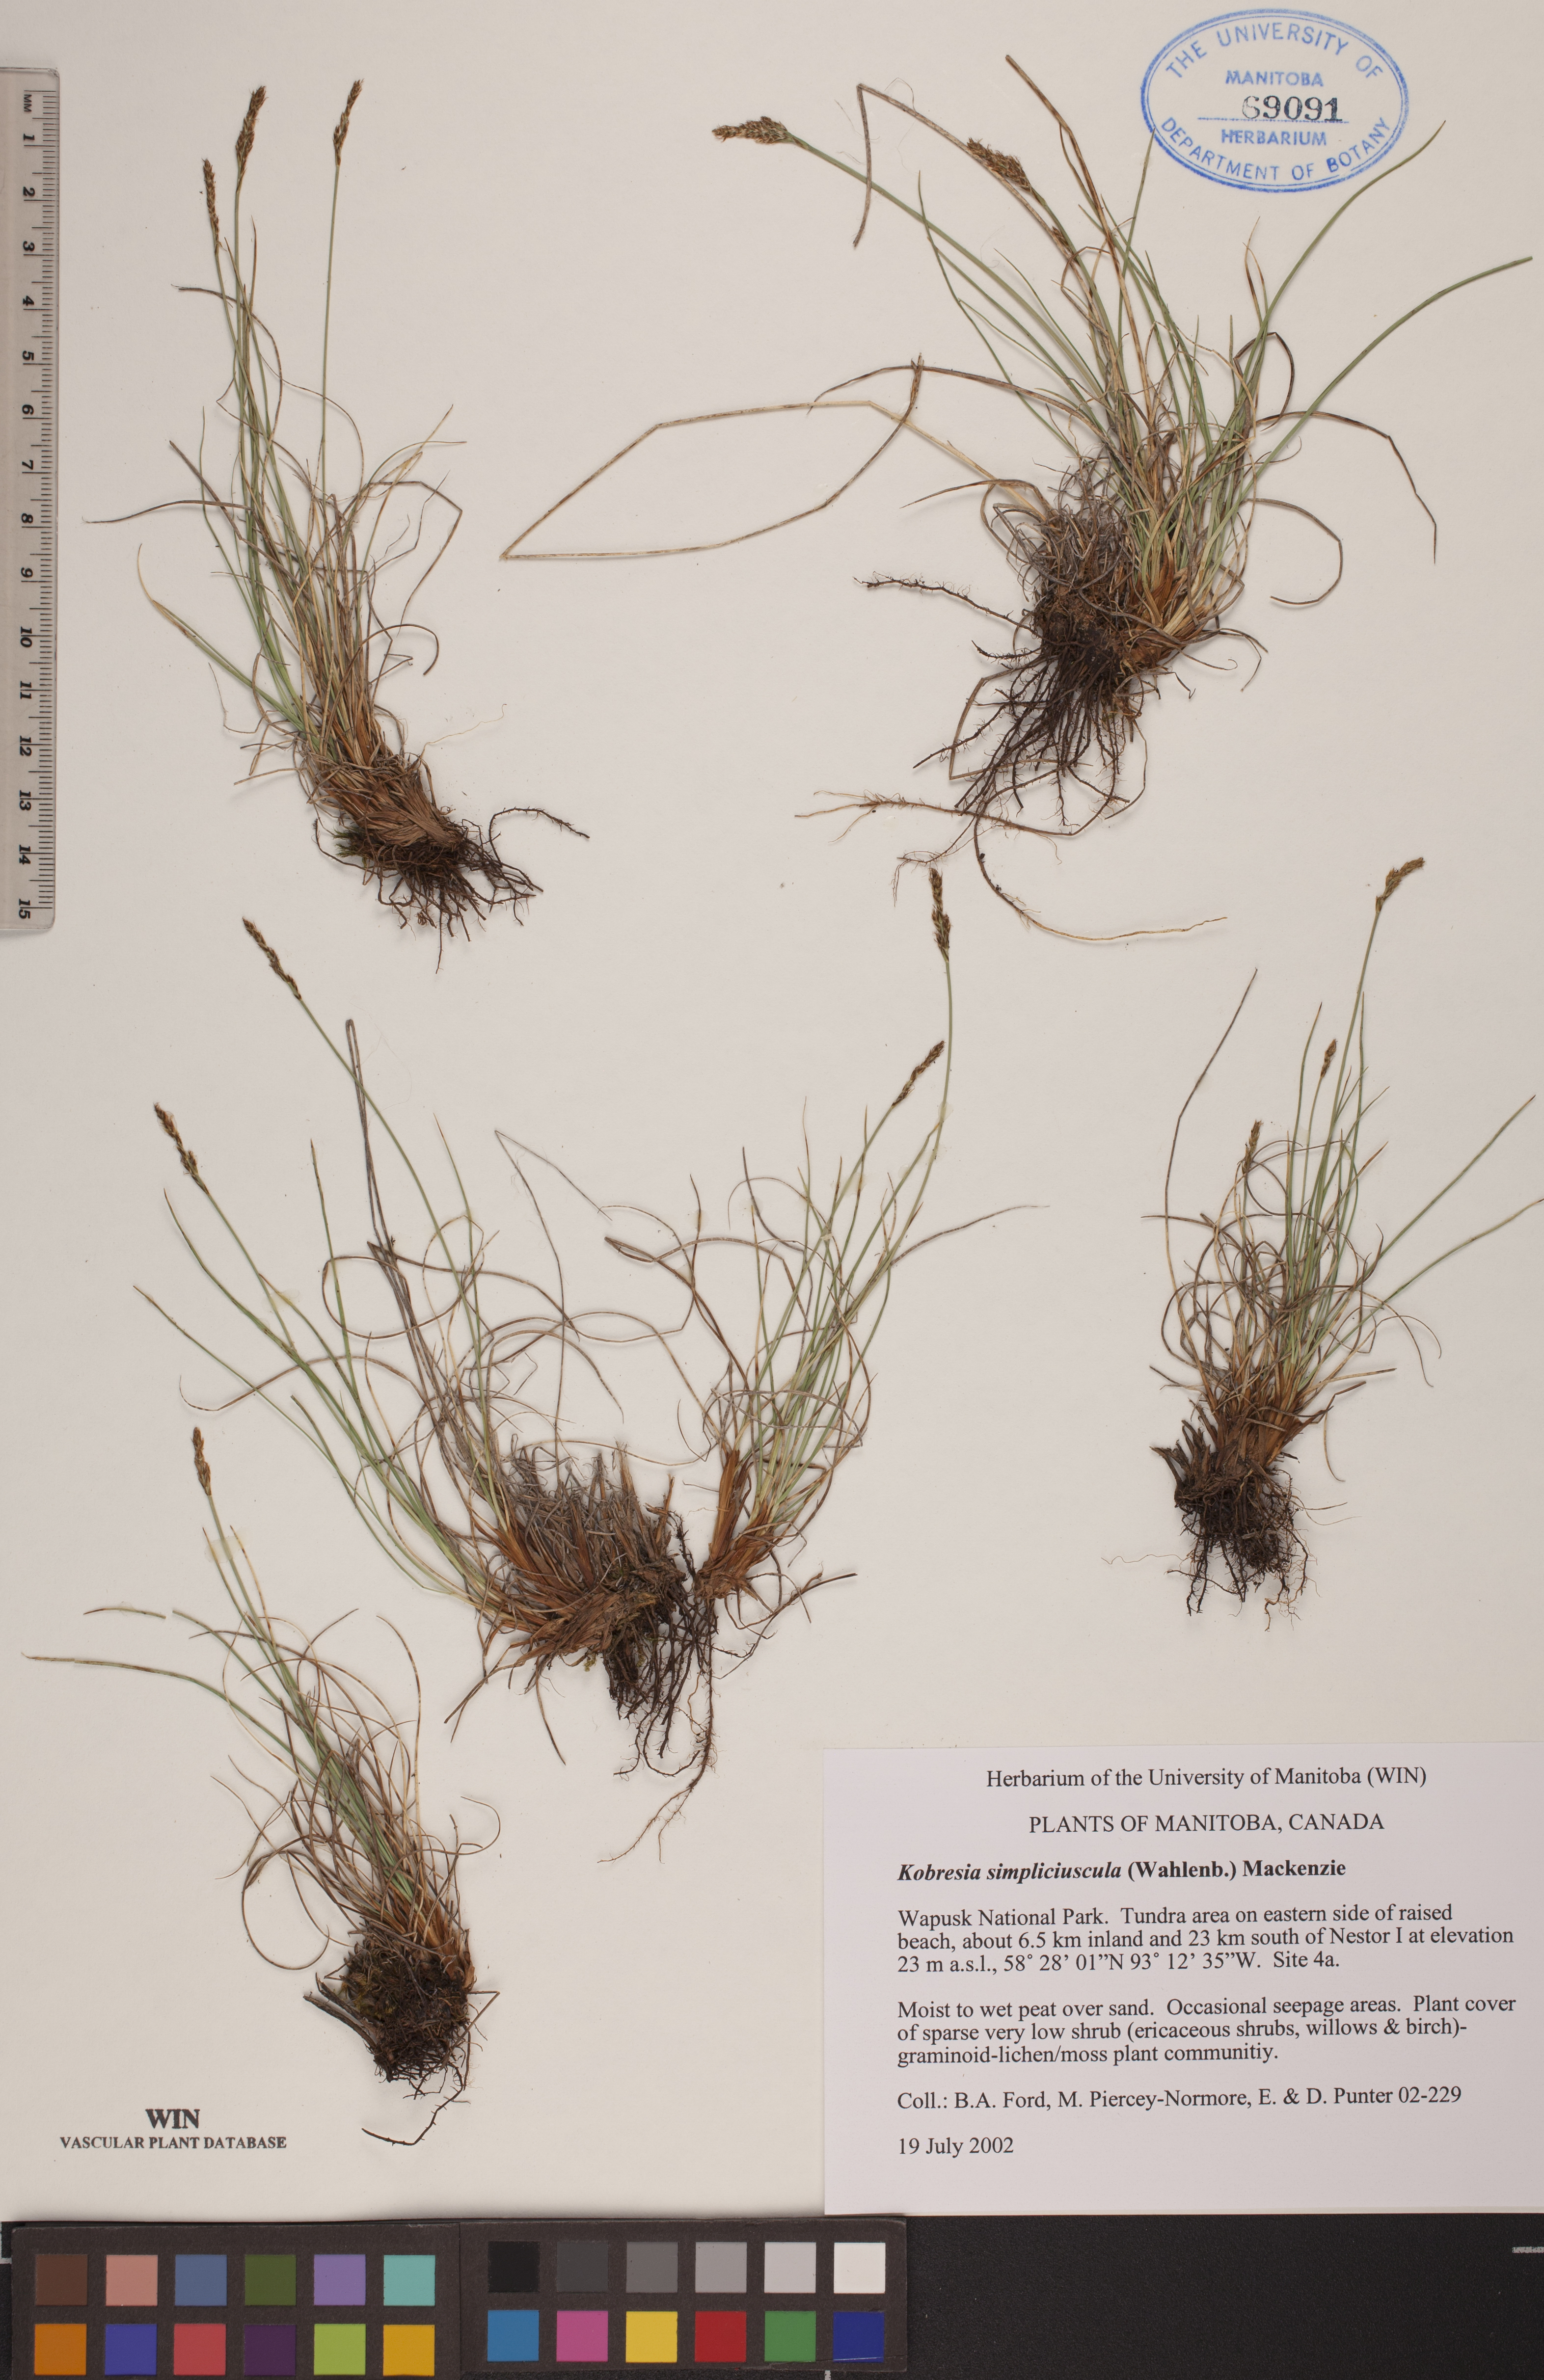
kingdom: Plantae
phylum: Tracheophyta
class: Liliopsida
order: Poales
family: Cyperaceae
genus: Carex
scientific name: Carex simpliciuscula
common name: Simple bog sedge
